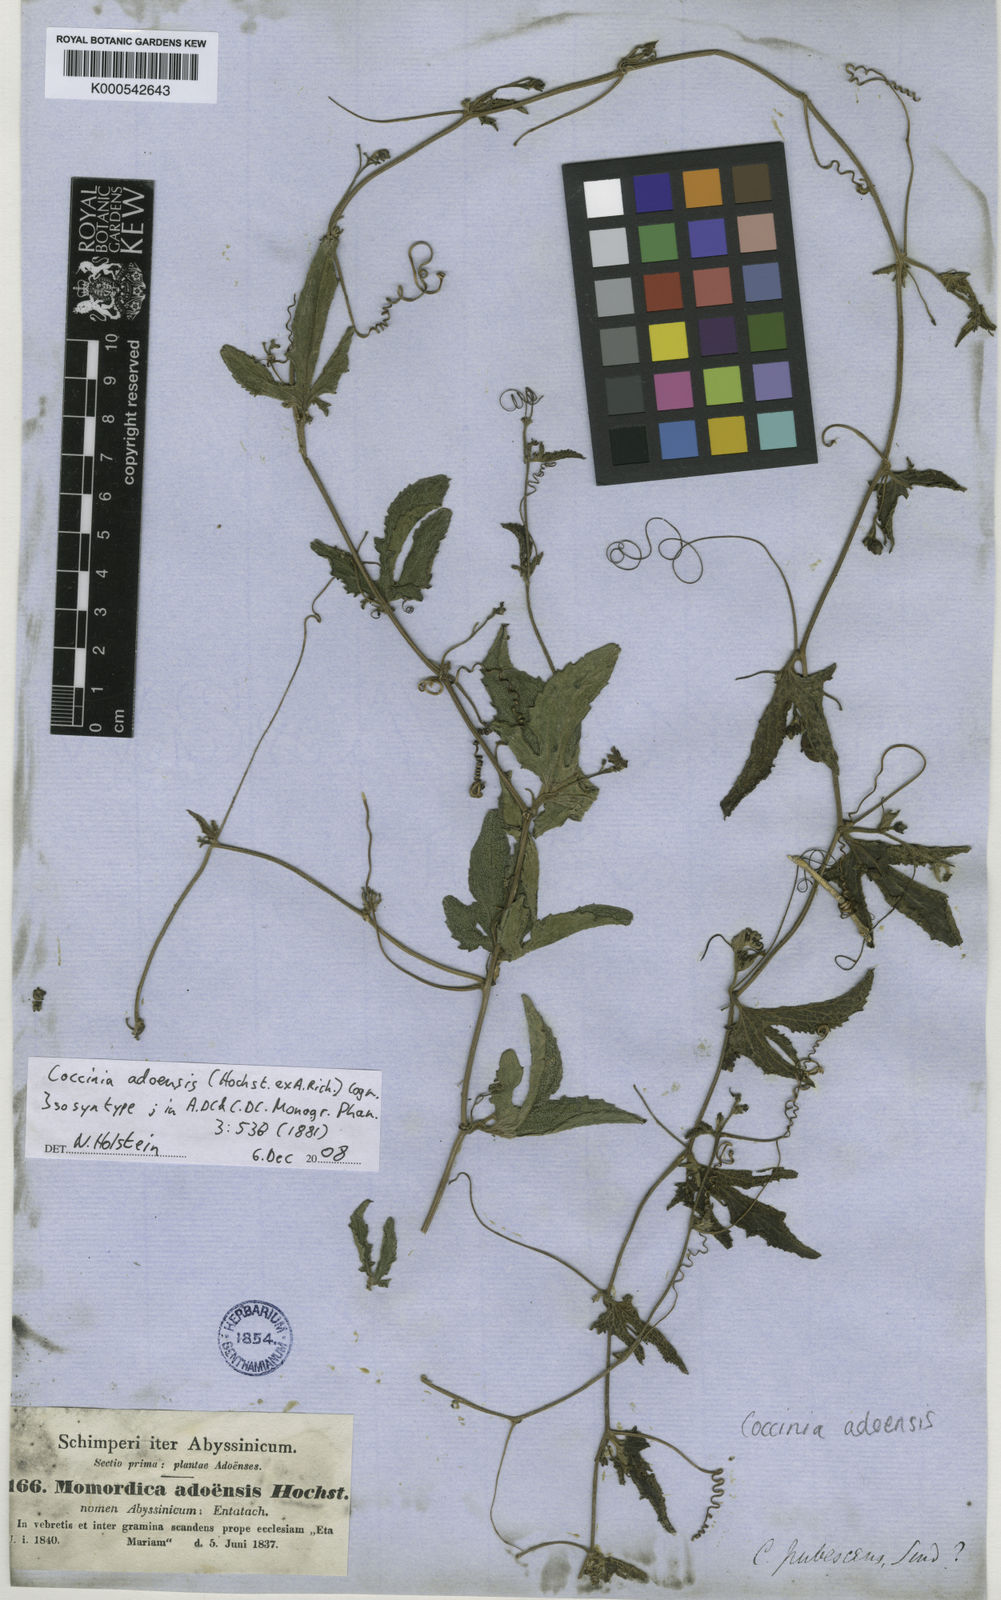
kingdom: Plantae
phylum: Tracheophyta
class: Magnoliopsida
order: Cucurbitales
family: Cucurbitaceae
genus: Coccinia
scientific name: Coccinia adoensis
